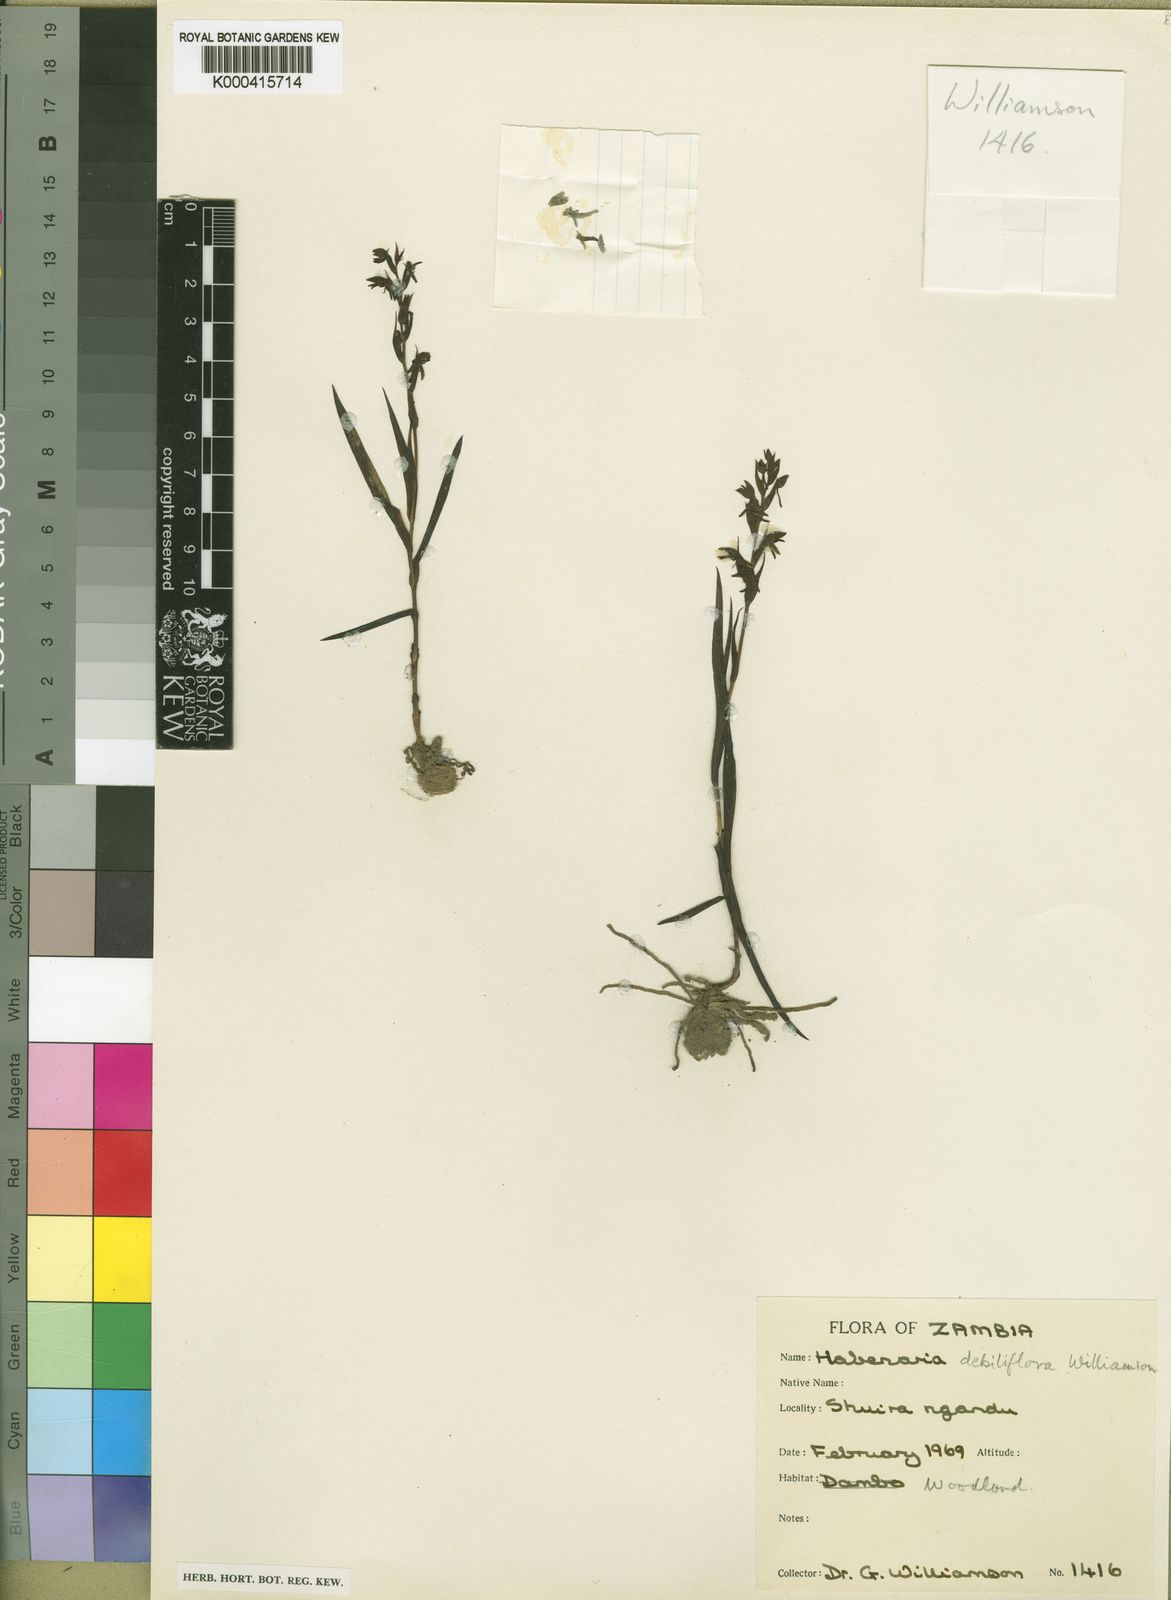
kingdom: Plantae
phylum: Tracheophyta
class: Liliopsida
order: Asparagales
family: Orchidaceae
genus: Habenaria
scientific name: Habenaria silvatica
